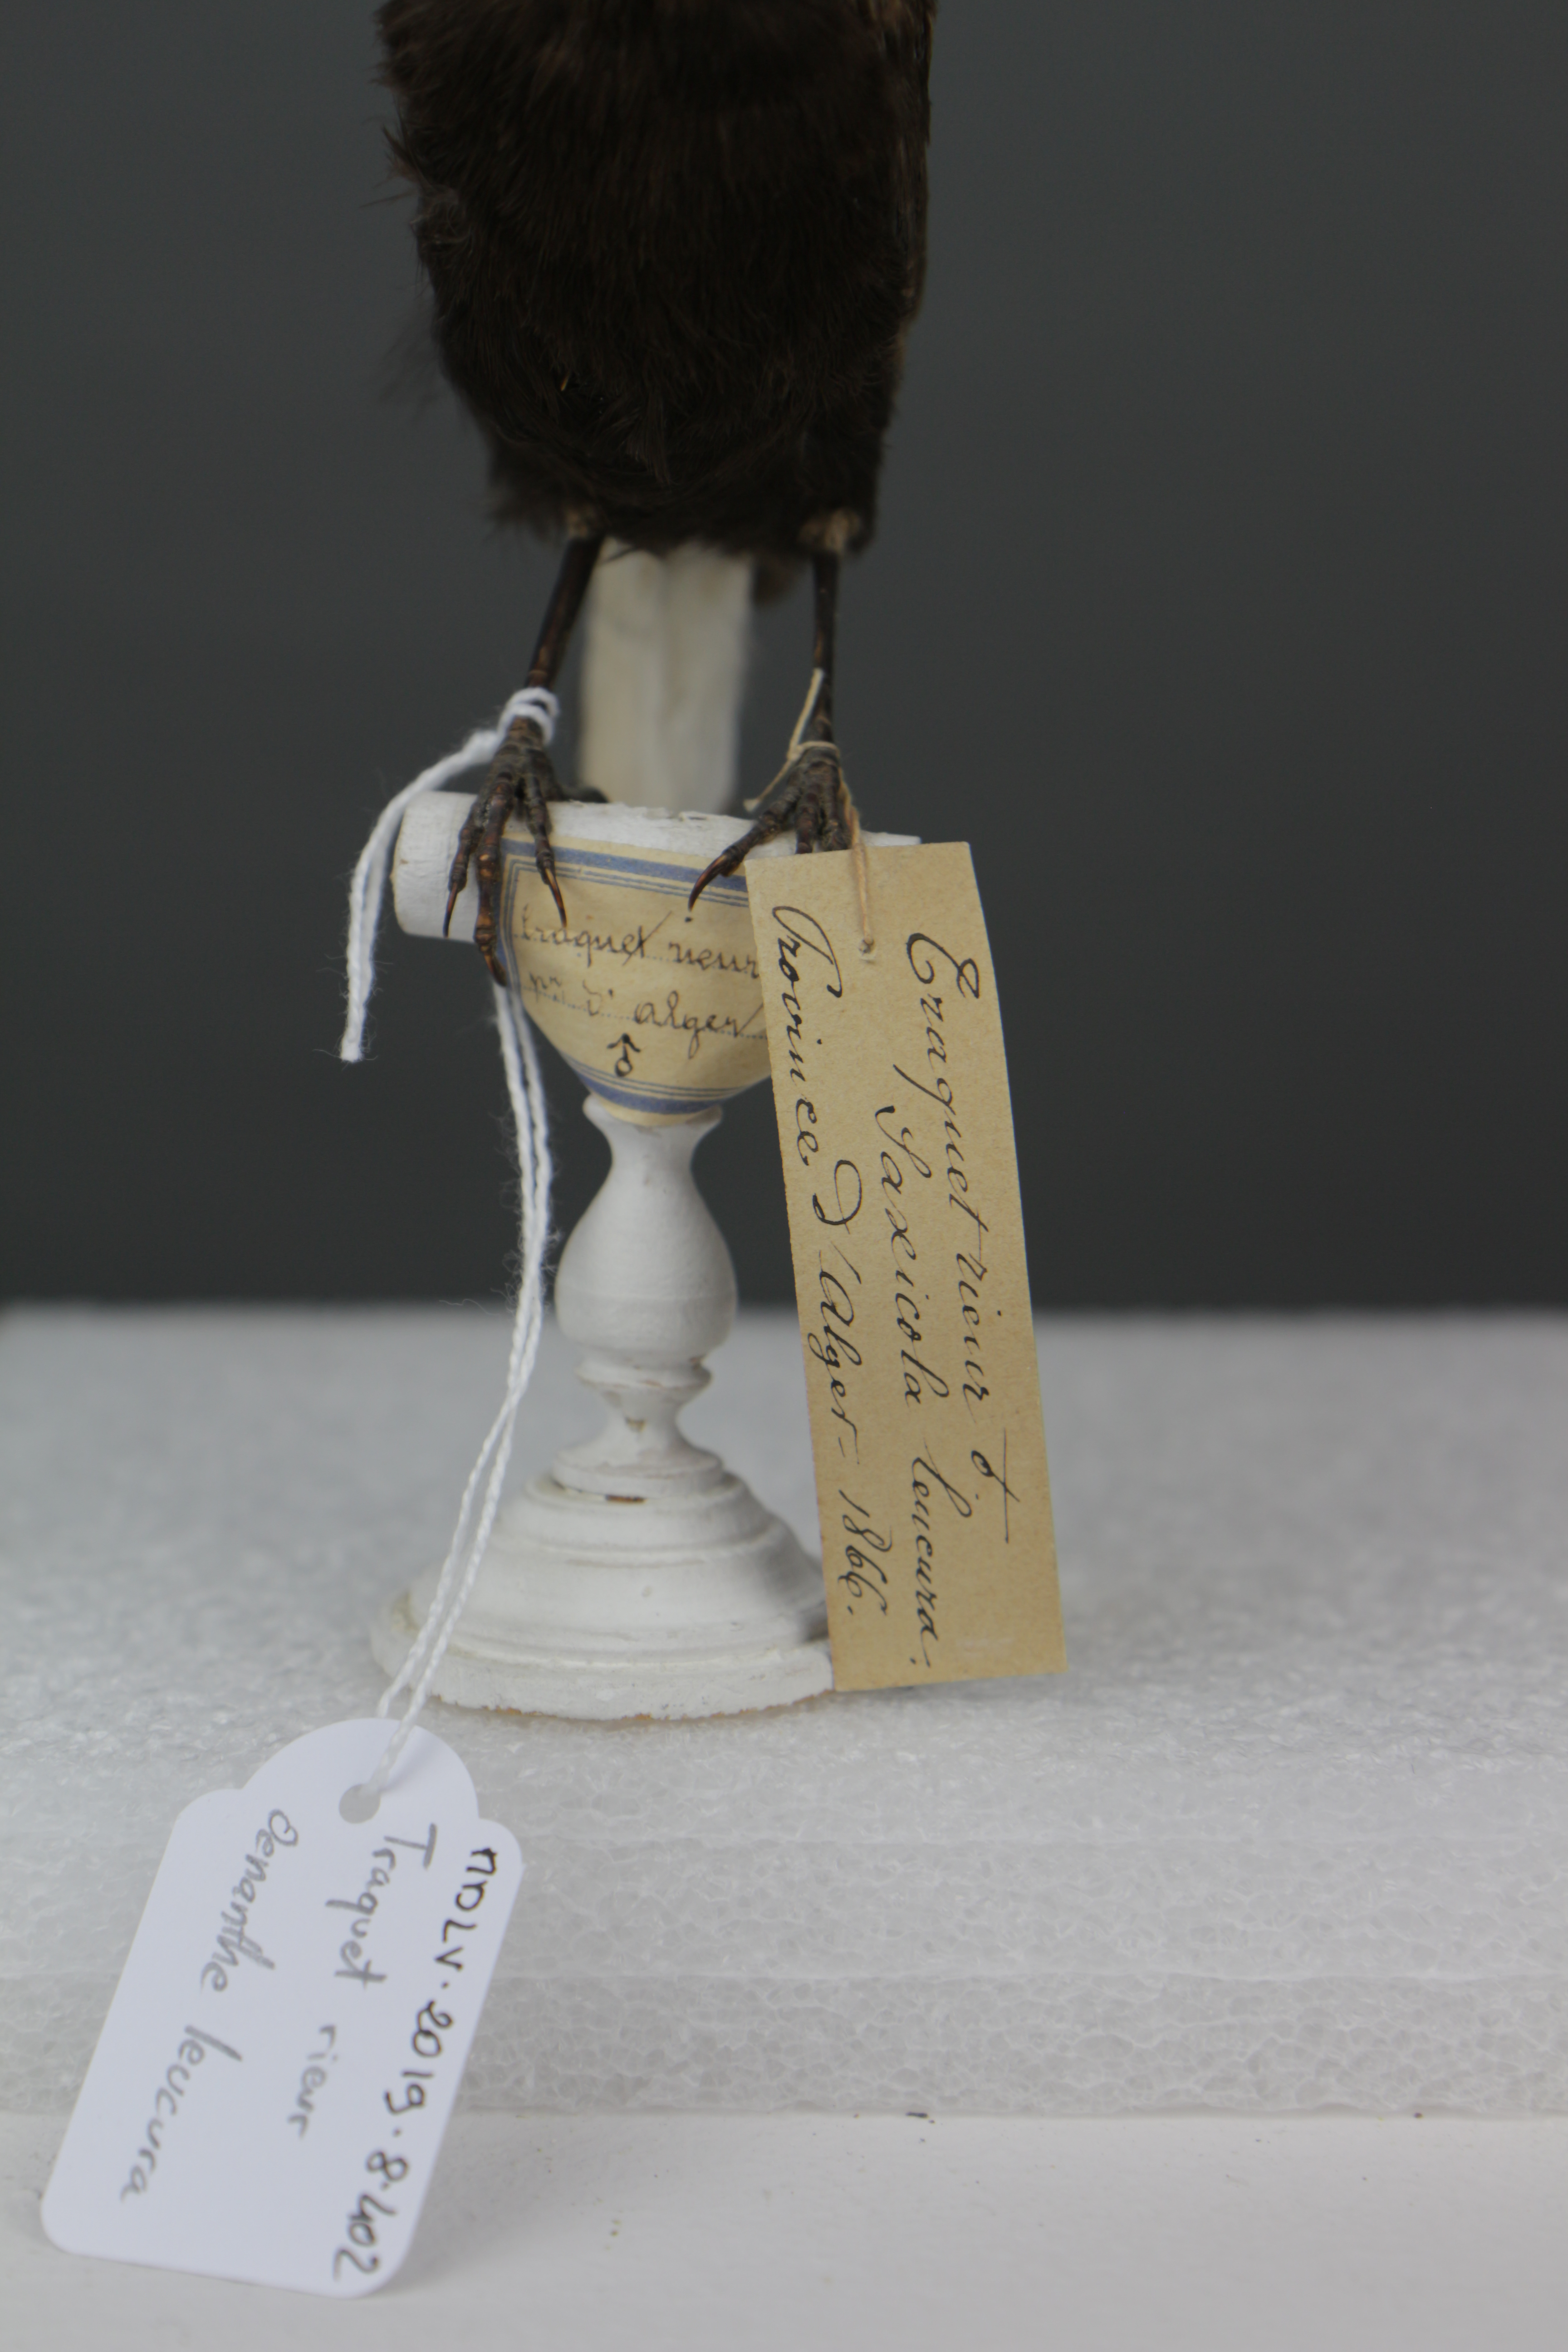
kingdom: Animalia
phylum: Chordata
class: Aves
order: Passeriformes
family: Muscicapidae
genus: Oenanthe
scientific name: Oenanthe leucura
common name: Black wheatear
